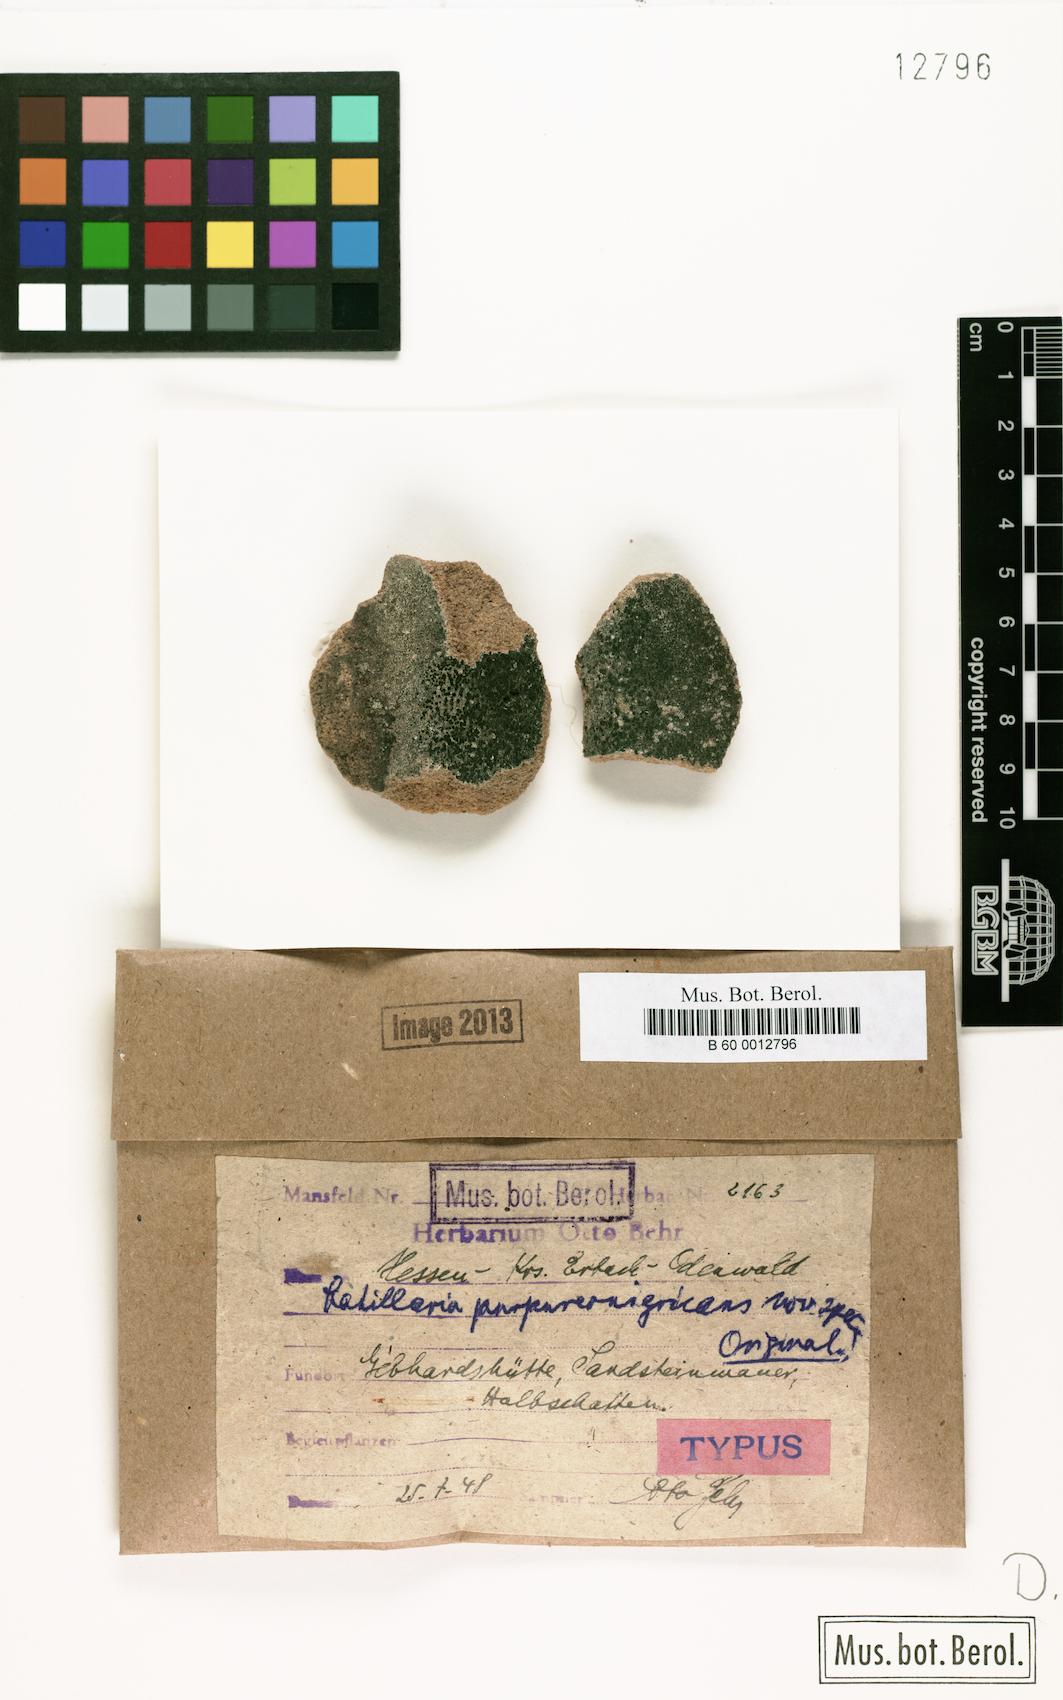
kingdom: Fungi
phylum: Ascomycota
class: Lecanoromycetes
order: Lecanorales
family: Catillariaceae
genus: Catillaria
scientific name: Catillaria
